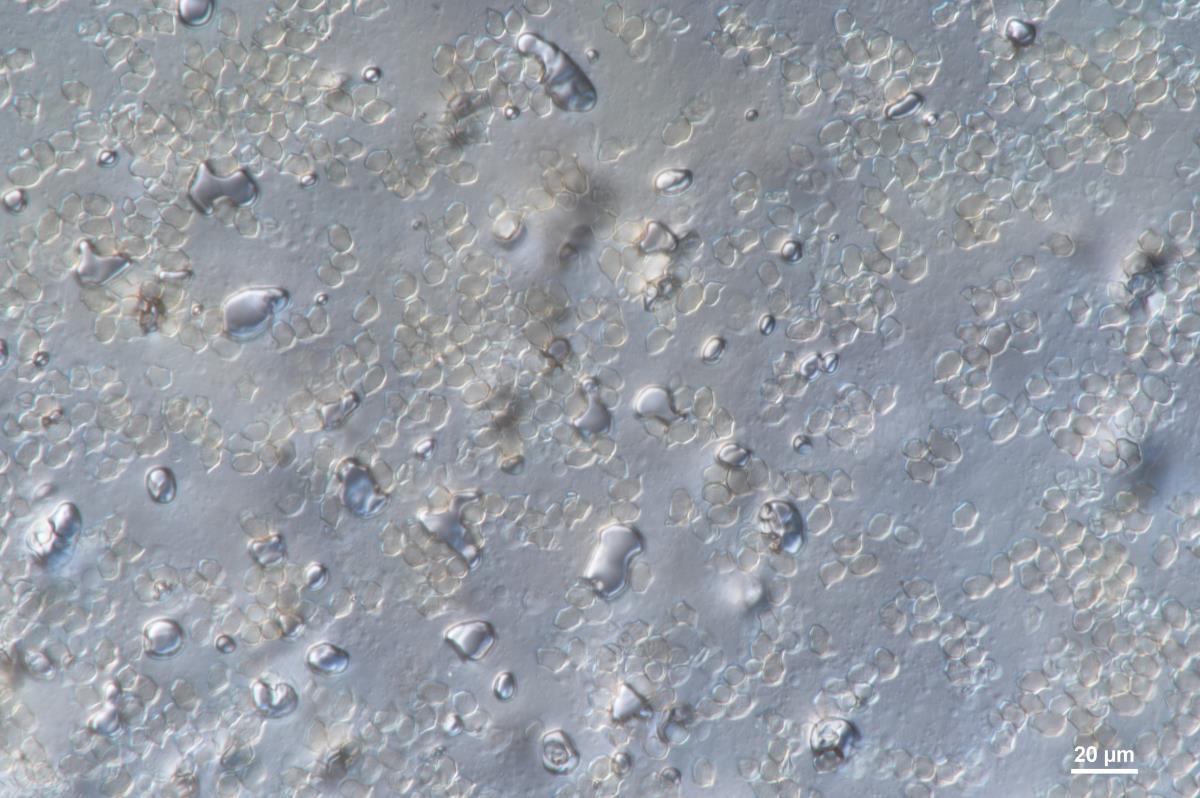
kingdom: Fungi
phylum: Basidiomycota
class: Agaricomycetes
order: Agaricales
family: Entolomataceae
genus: Entoloma
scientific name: Entoloma byssisedum
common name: Oysterling pinkgill
